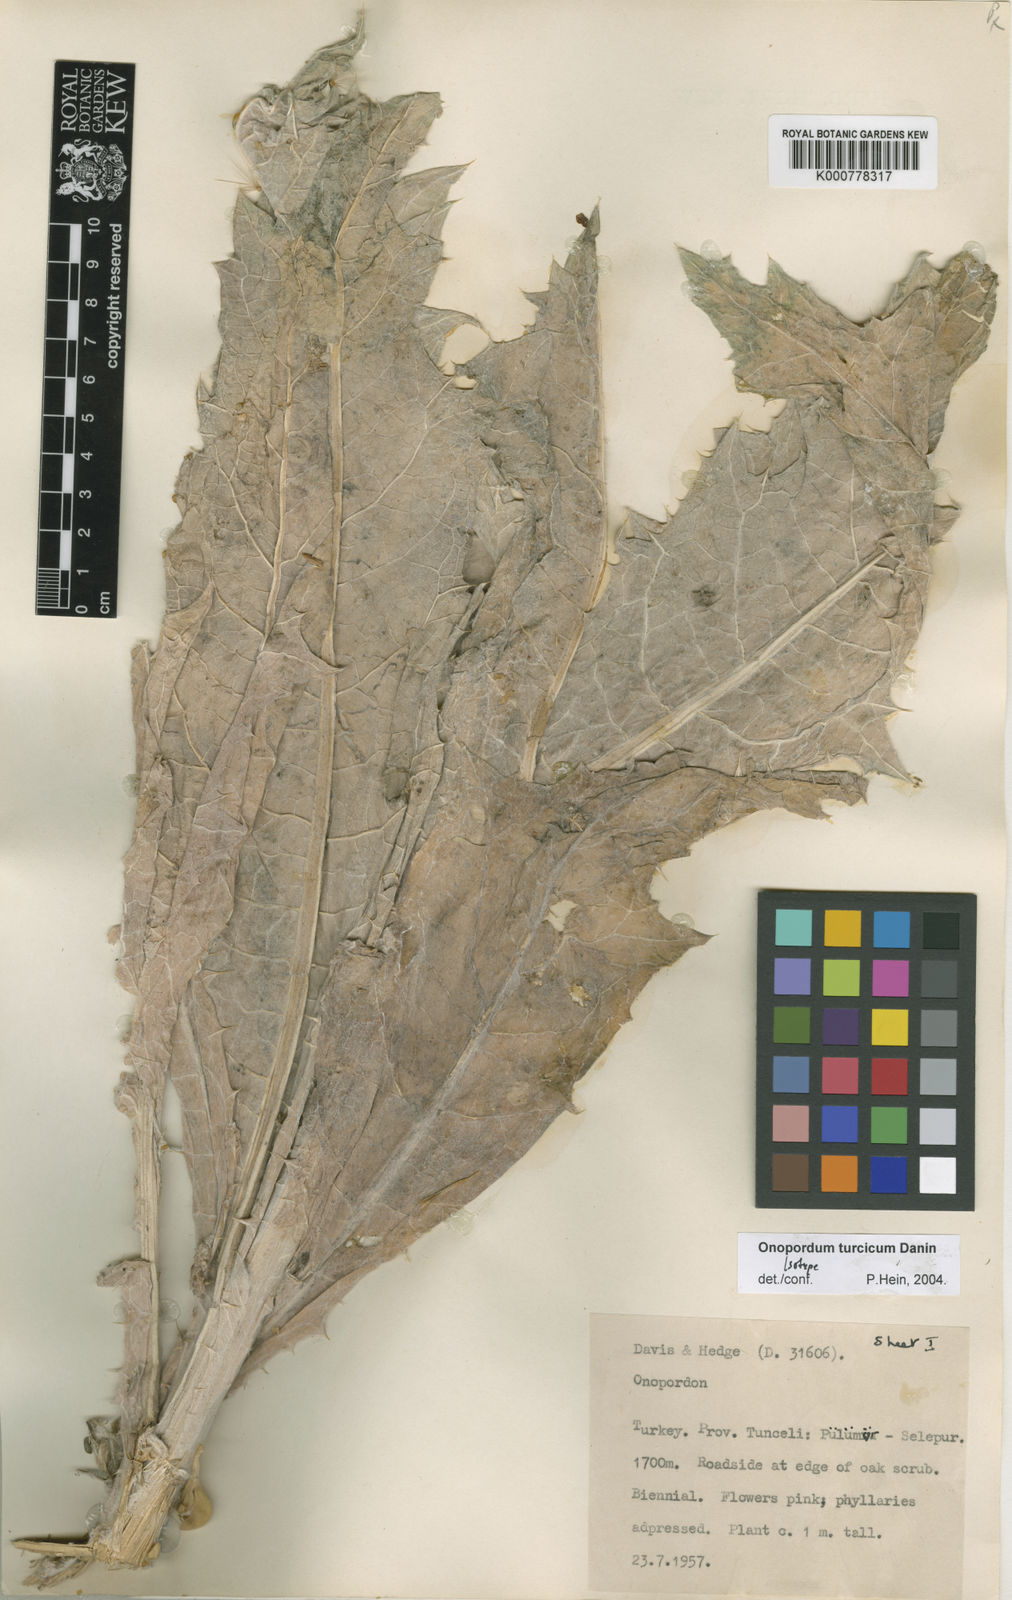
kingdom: Plantae
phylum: Tracheophyta
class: Magnoliopsida
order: Asterales
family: Asteraceae
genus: Onopordum
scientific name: Onopordum turcicum
